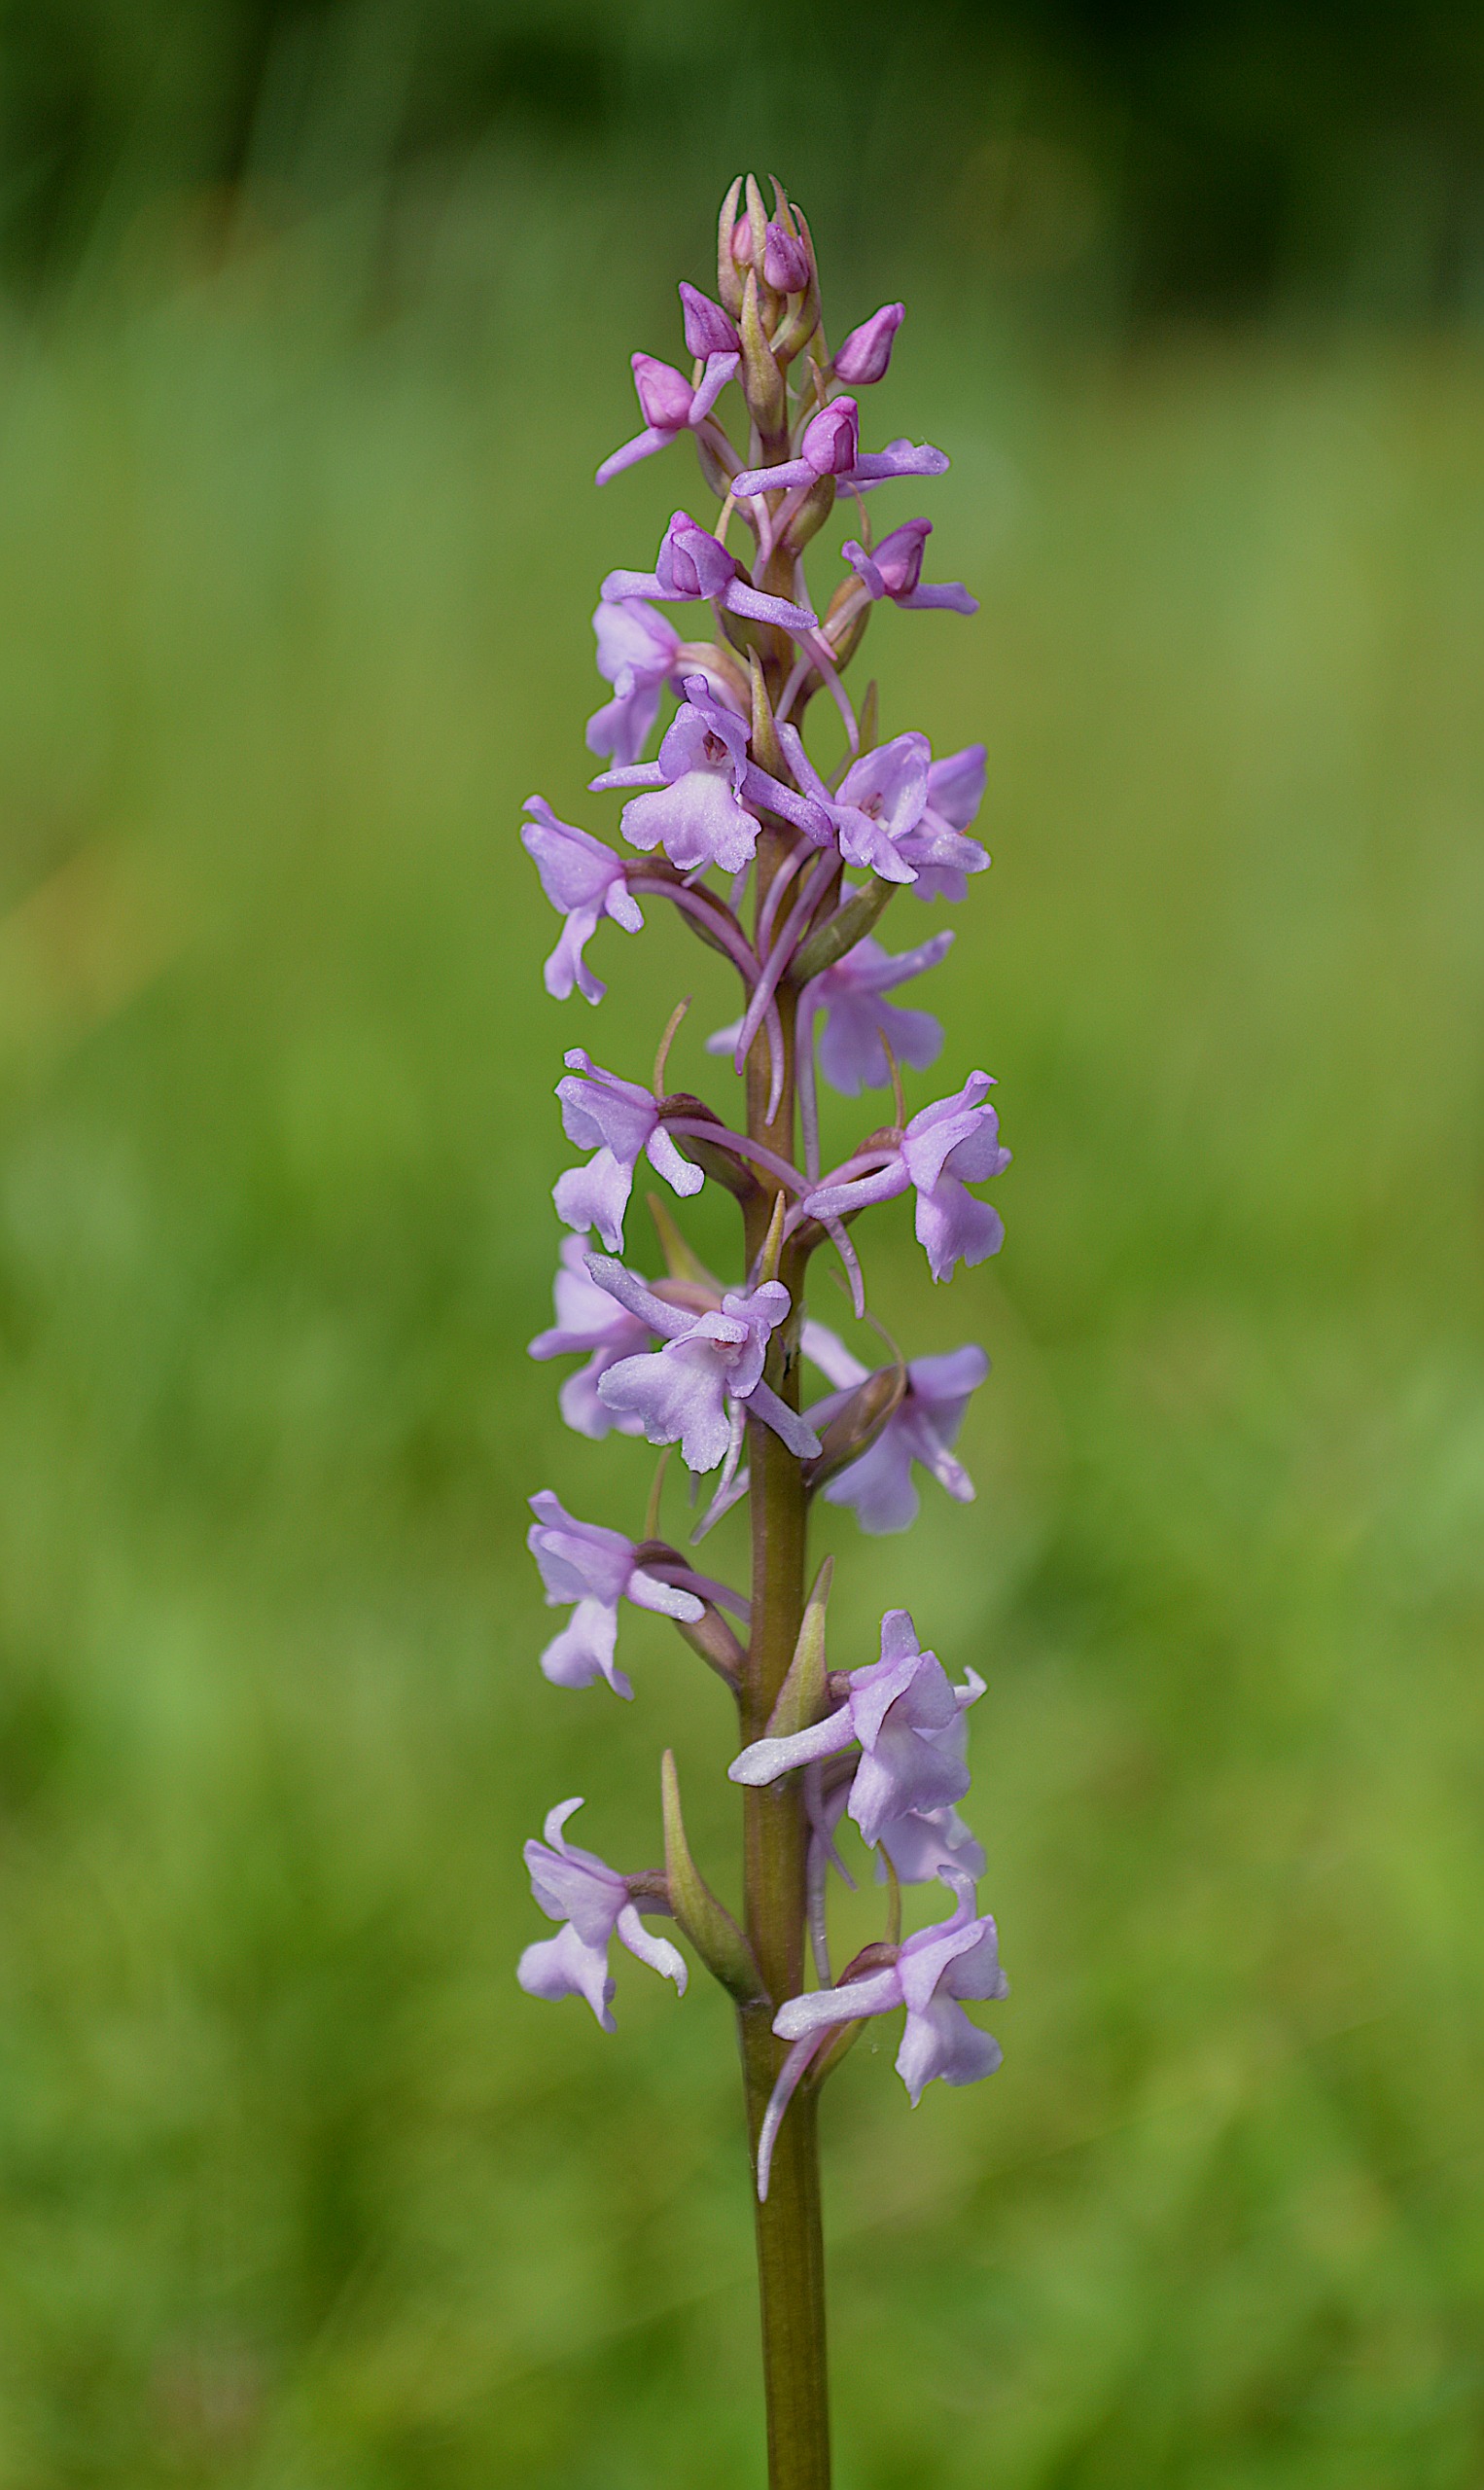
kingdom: Plantae
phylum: Tracheophyta
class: Liliopsida
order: Asparagales
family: Orchidaceae
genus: Gymnadenia
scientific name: Gymnadenia conopsea
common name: Langakset trådspore
